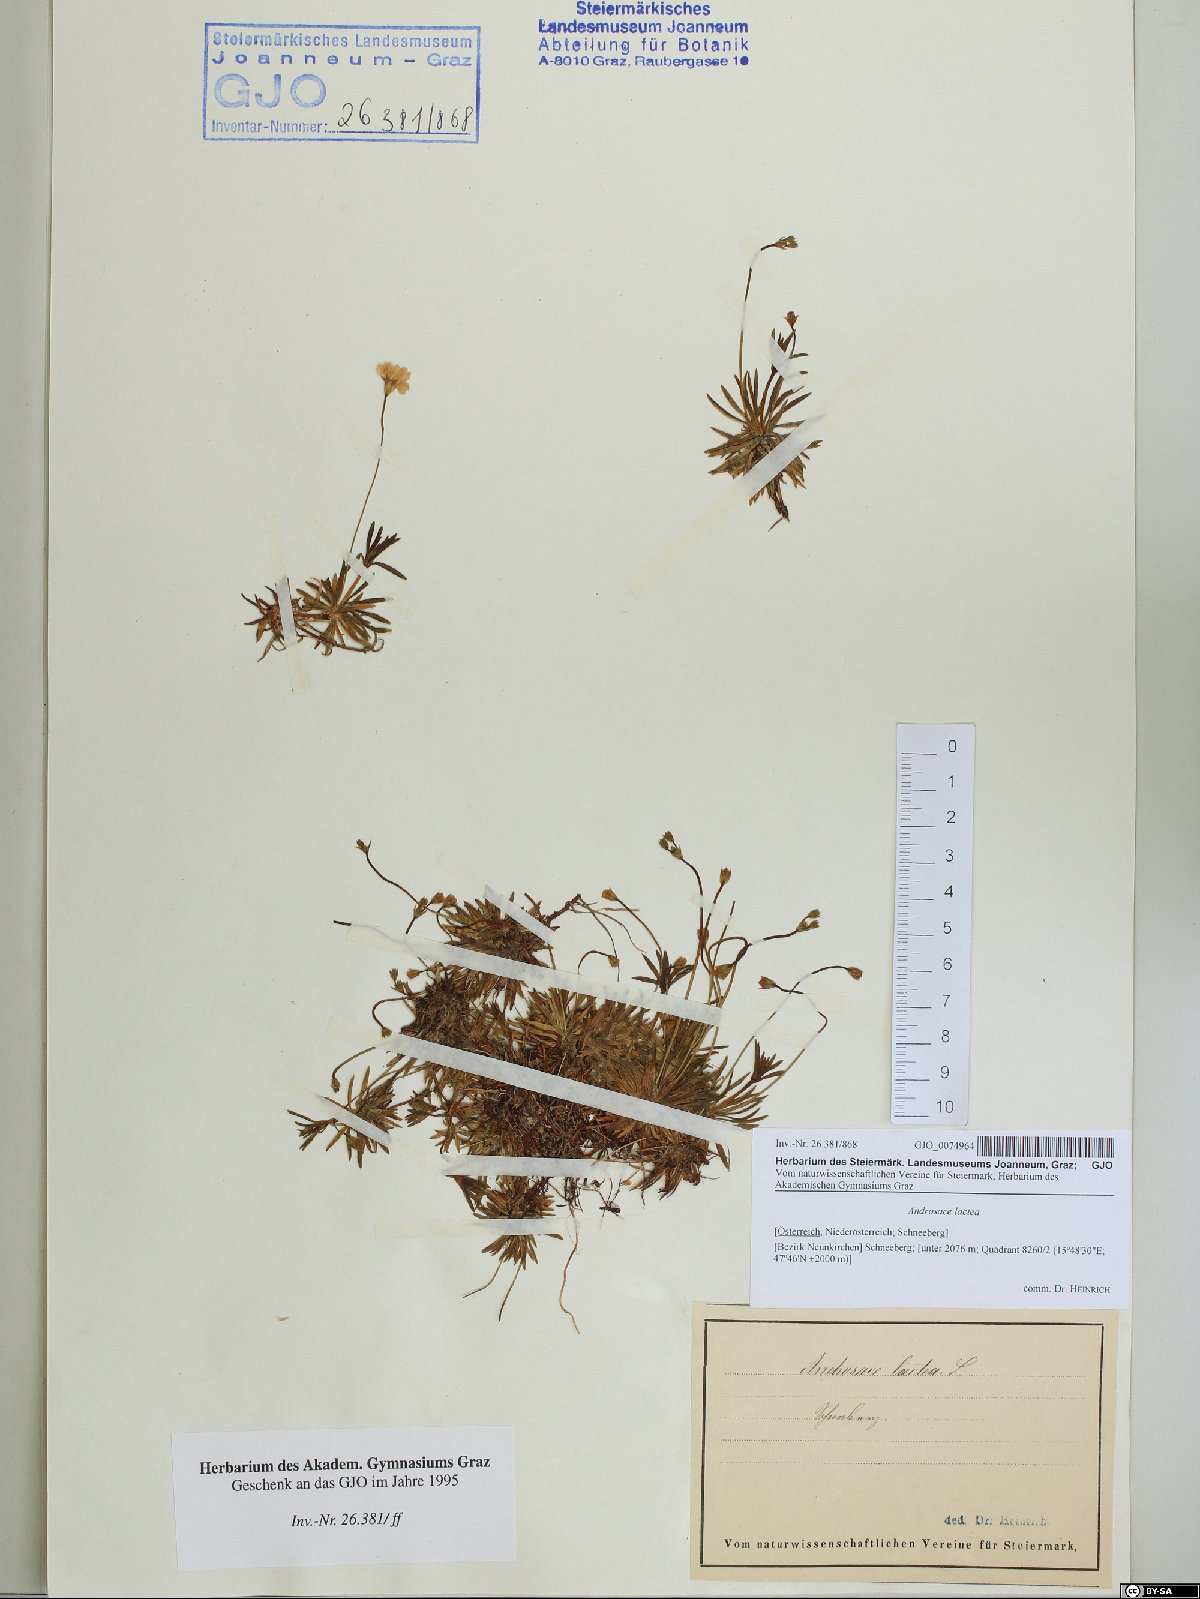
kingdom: Plantae
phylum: Tracheophyta
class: Magnoliopsida
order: Ericales
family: Primulaceae
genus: Androsace
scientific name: Androsace lactea
